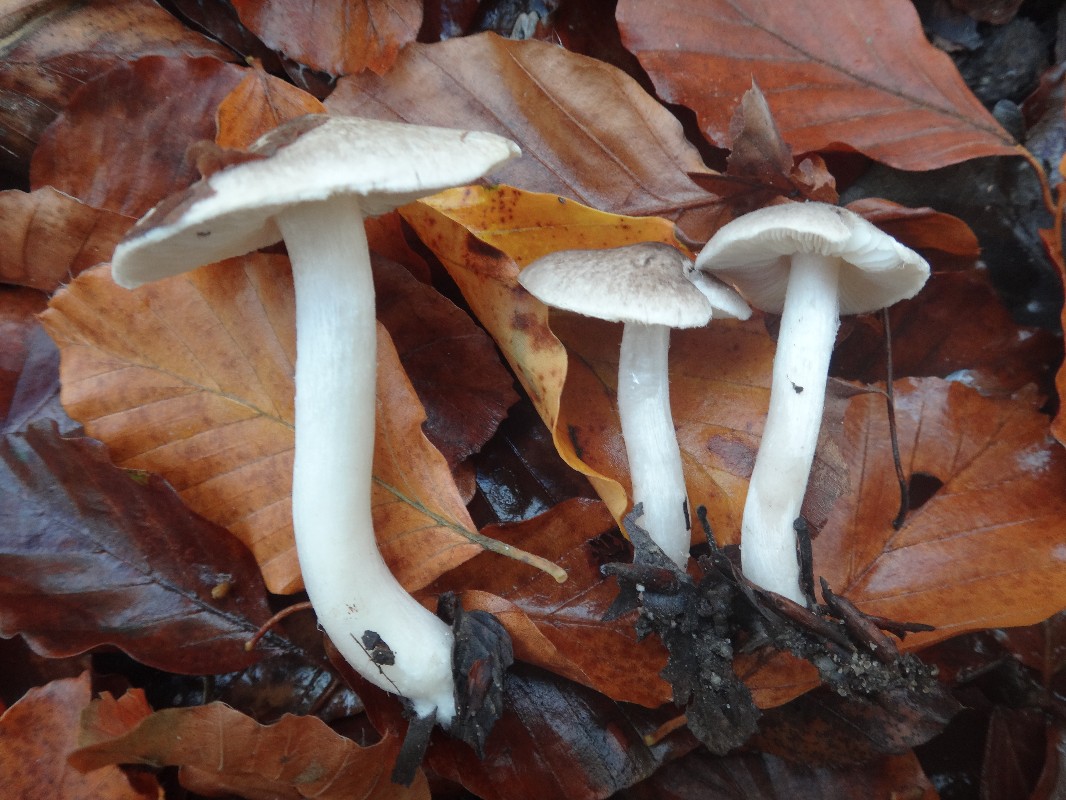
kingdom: Fungi
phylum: Basidiomycota
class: Agaricomycetes
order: Agaricales
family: Tricholomataceae
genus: Tricholoma
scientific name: Tricholoma scalpturatum
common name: gulplettet ridderhat
